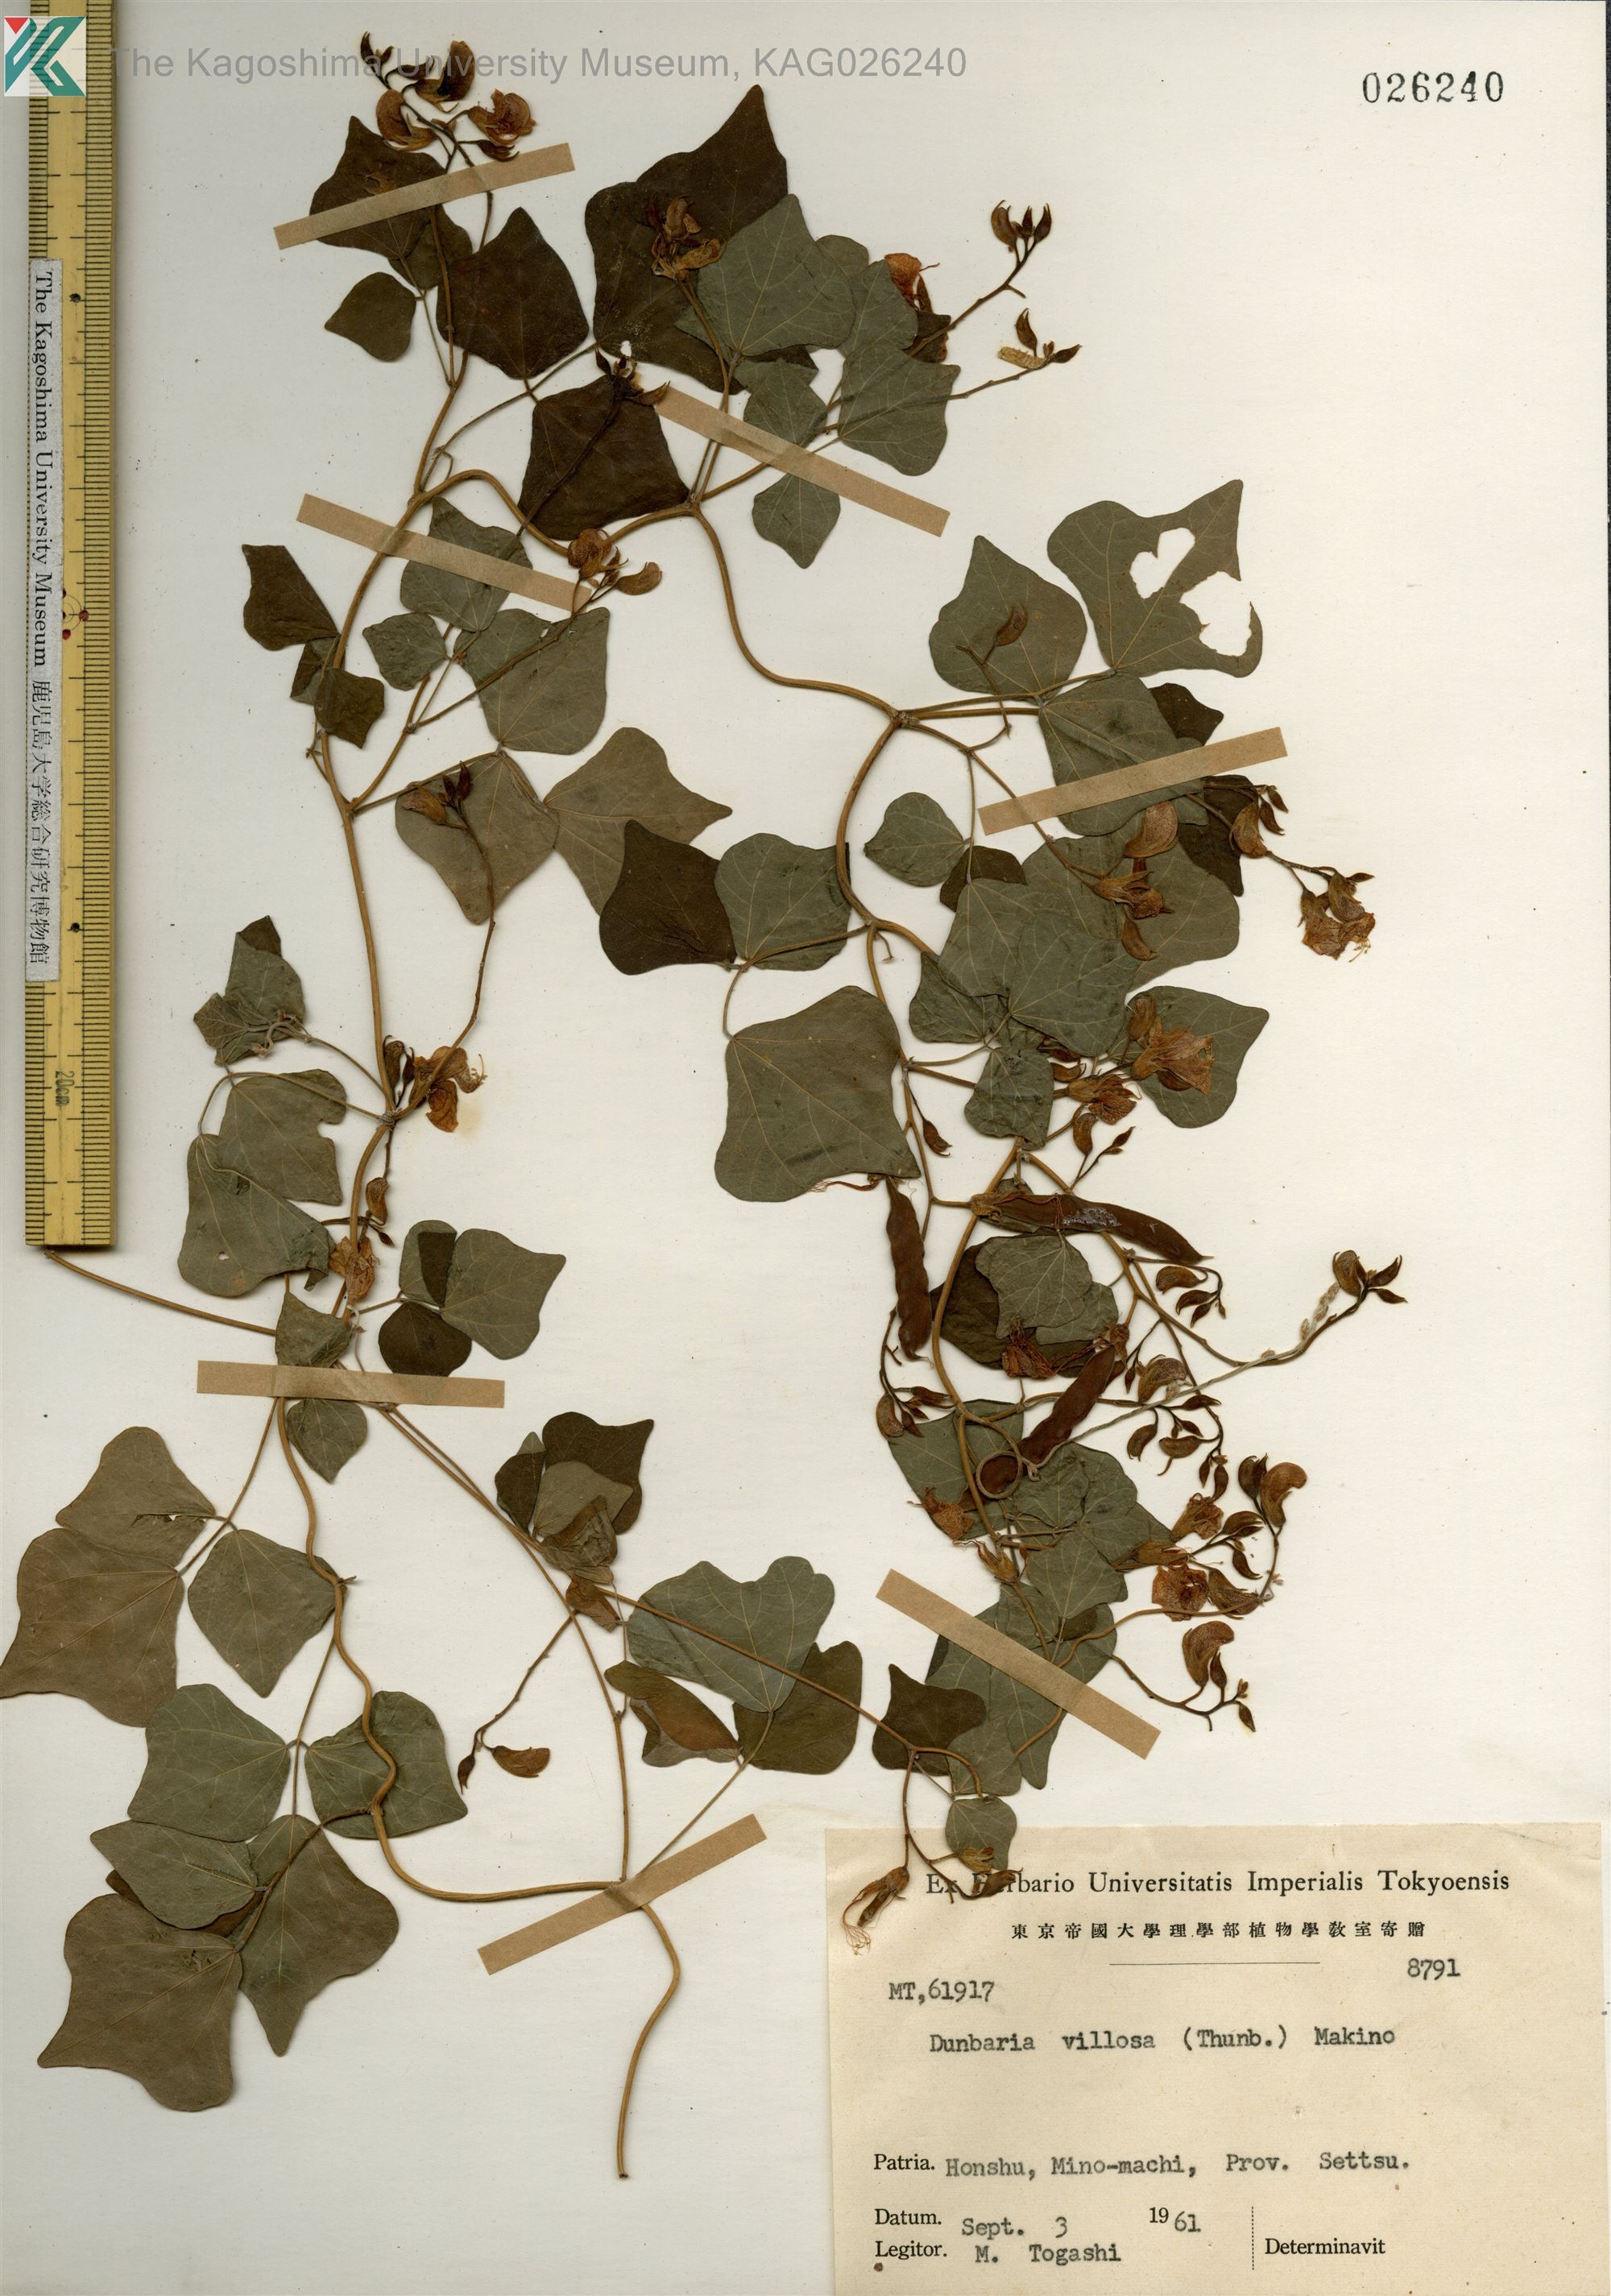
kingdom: Plantae
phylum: Tracheophyta
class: Magnoliopsida
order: Fabales
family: Fabaceae
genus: Dunbaria
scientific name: Dunbaria villosa
